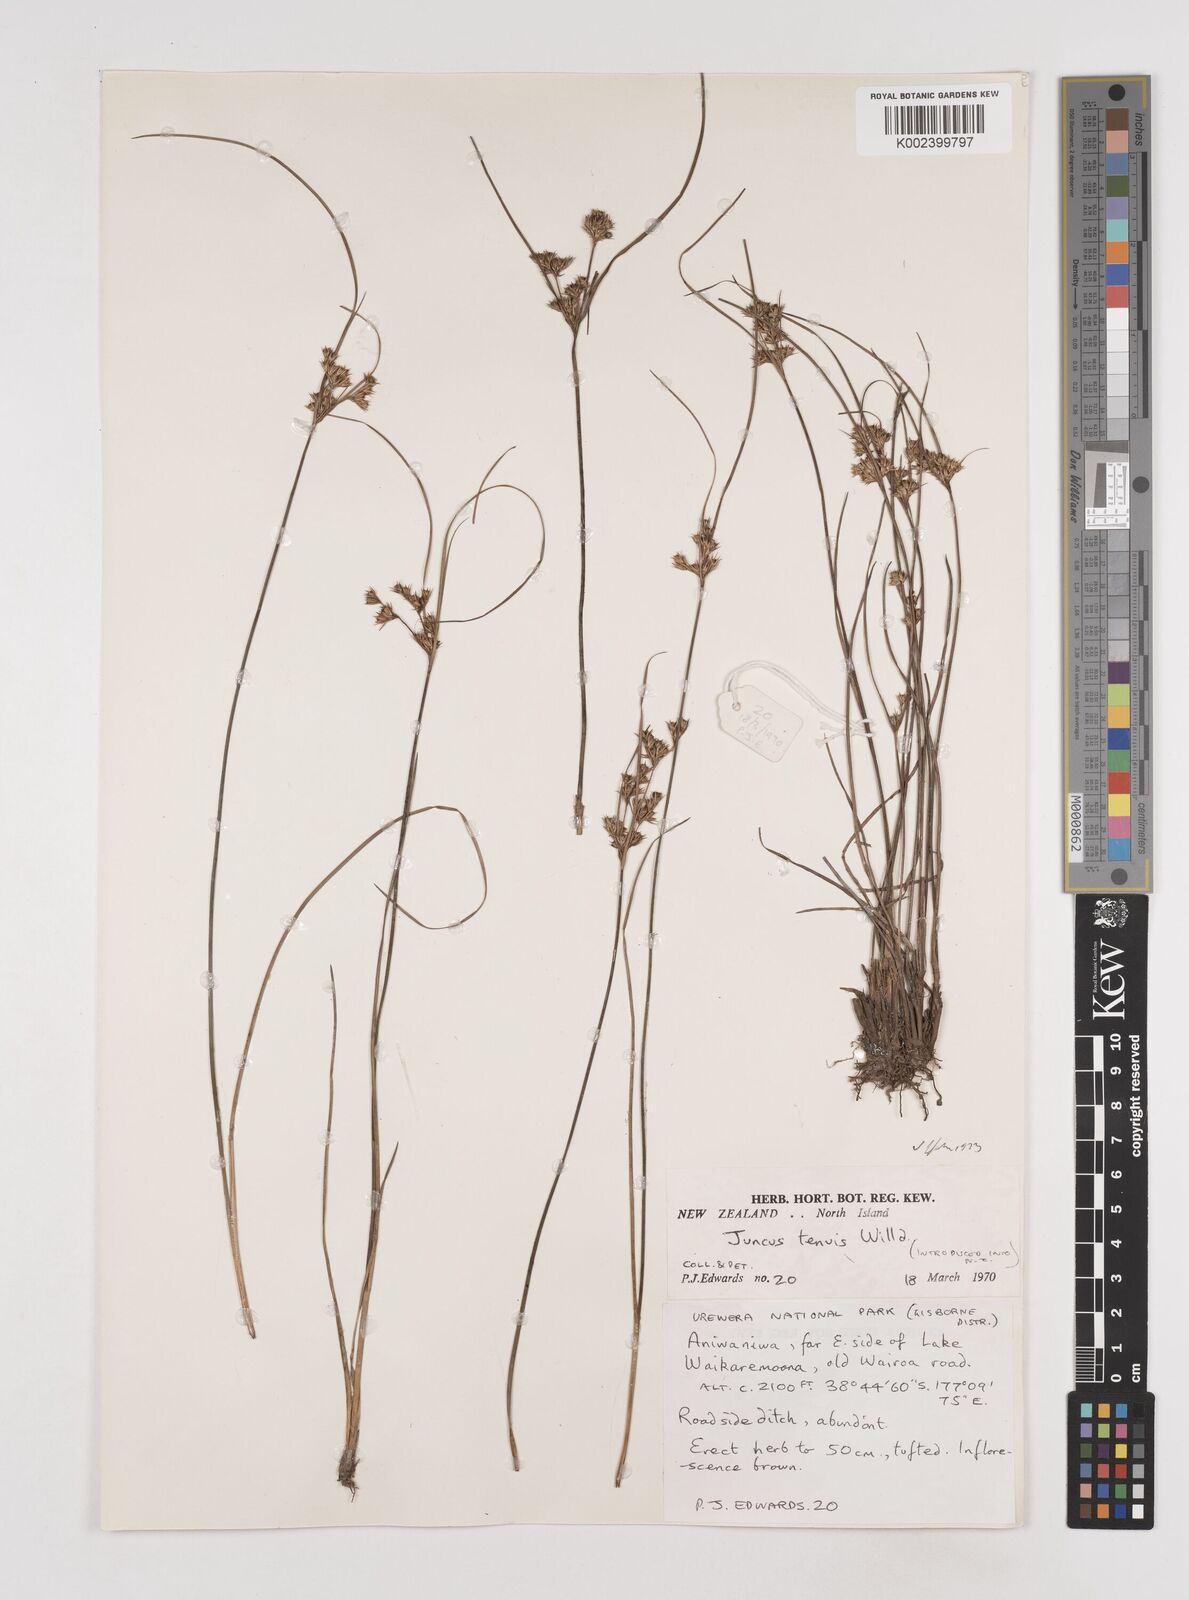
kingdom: Plantae
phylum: Tracheophyta
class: Liliopsida
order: Poales
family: Juncaceae
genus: Juncus
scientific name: Juncus tenuis
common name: Slender rush
